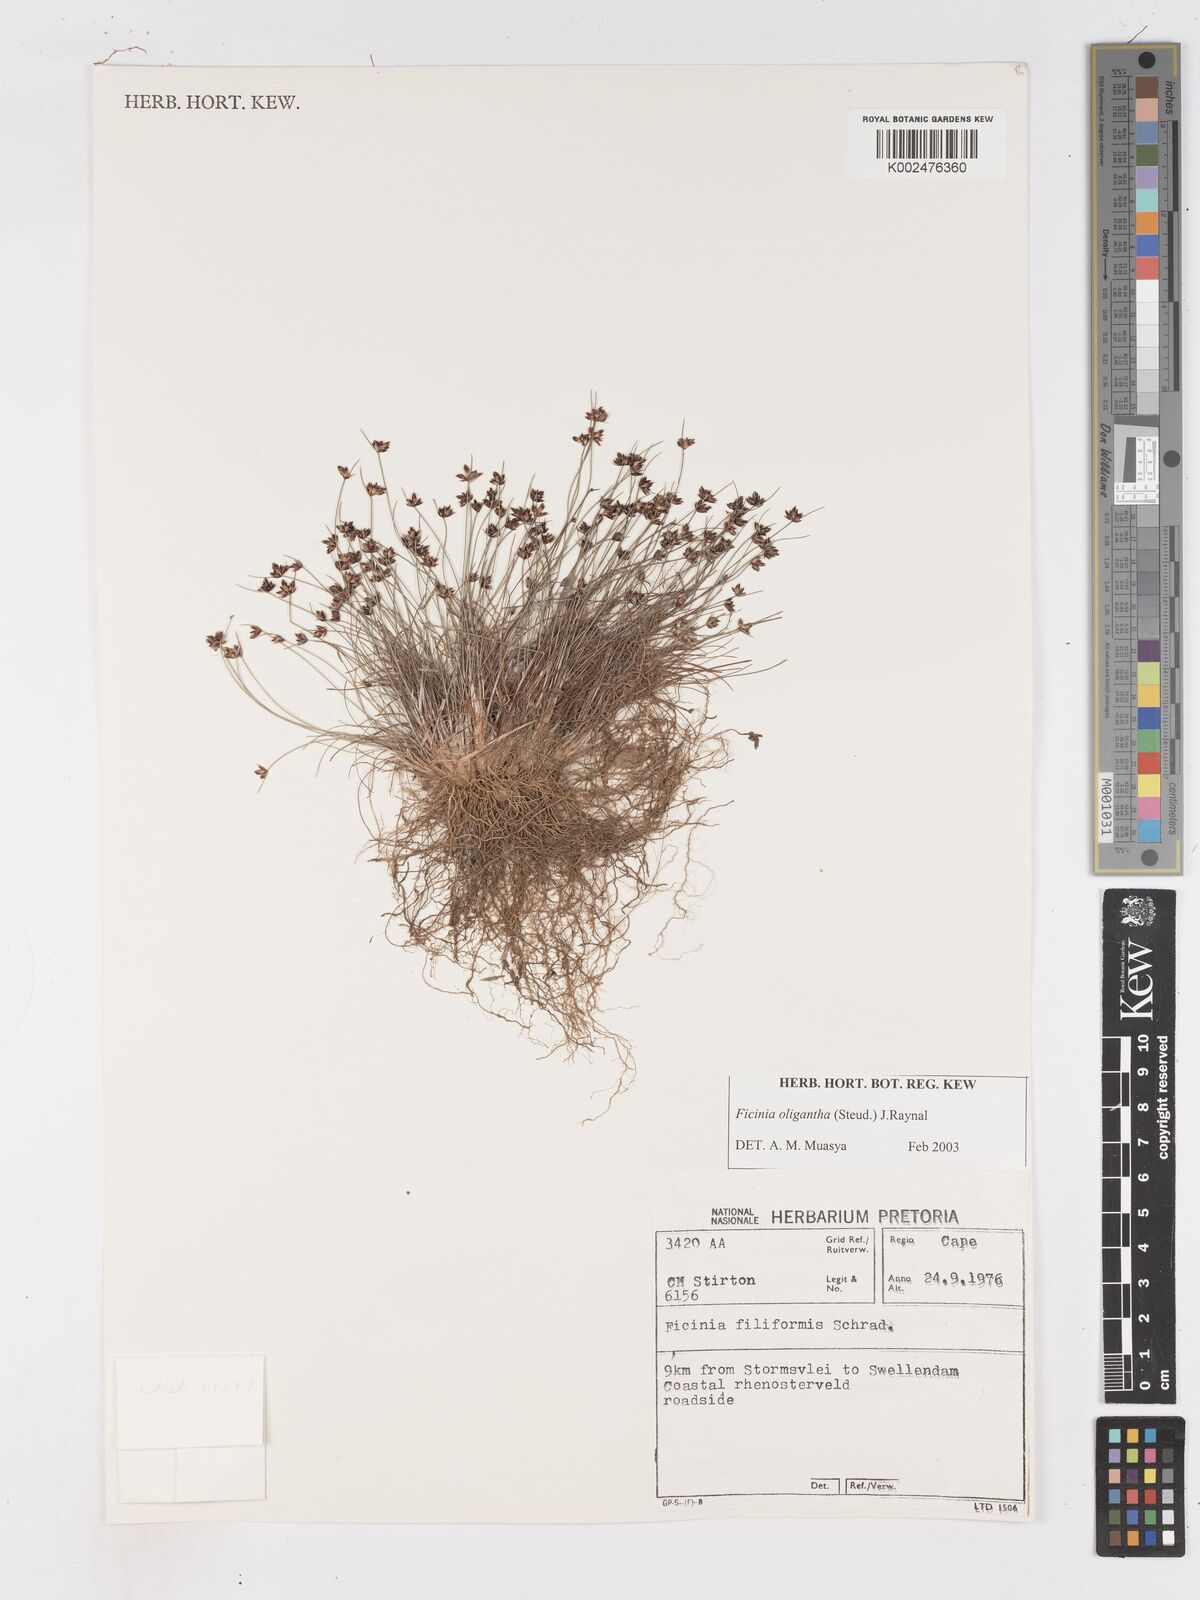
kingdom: Plantae
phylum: Tracheophyta
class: Liliopsida
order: Poales
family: Cyperaceae
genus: Ficinia
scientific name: Ficinia oligantha
